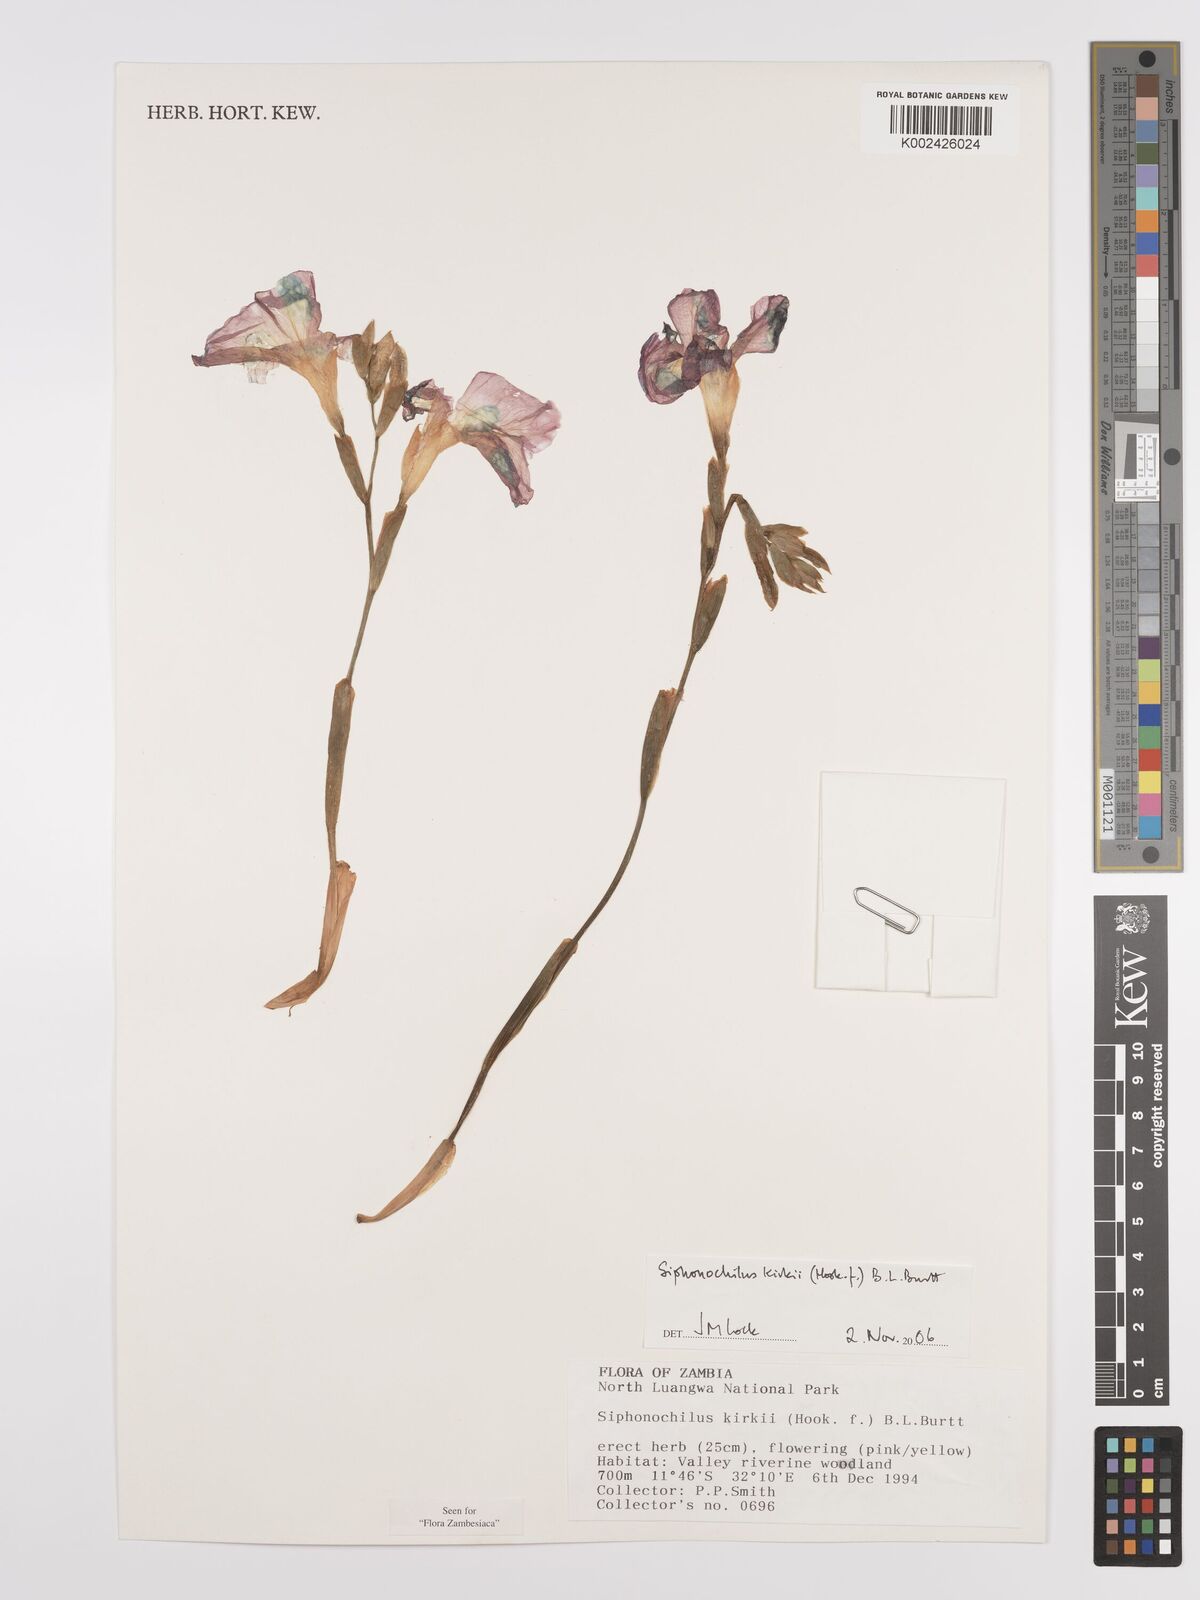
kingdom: Plantae
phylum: Tracheophyta
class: Liliopsida
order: Zingiberales
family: Zingiberaceae
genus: Siphonochilus
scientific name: Siphonochilus kirkii
